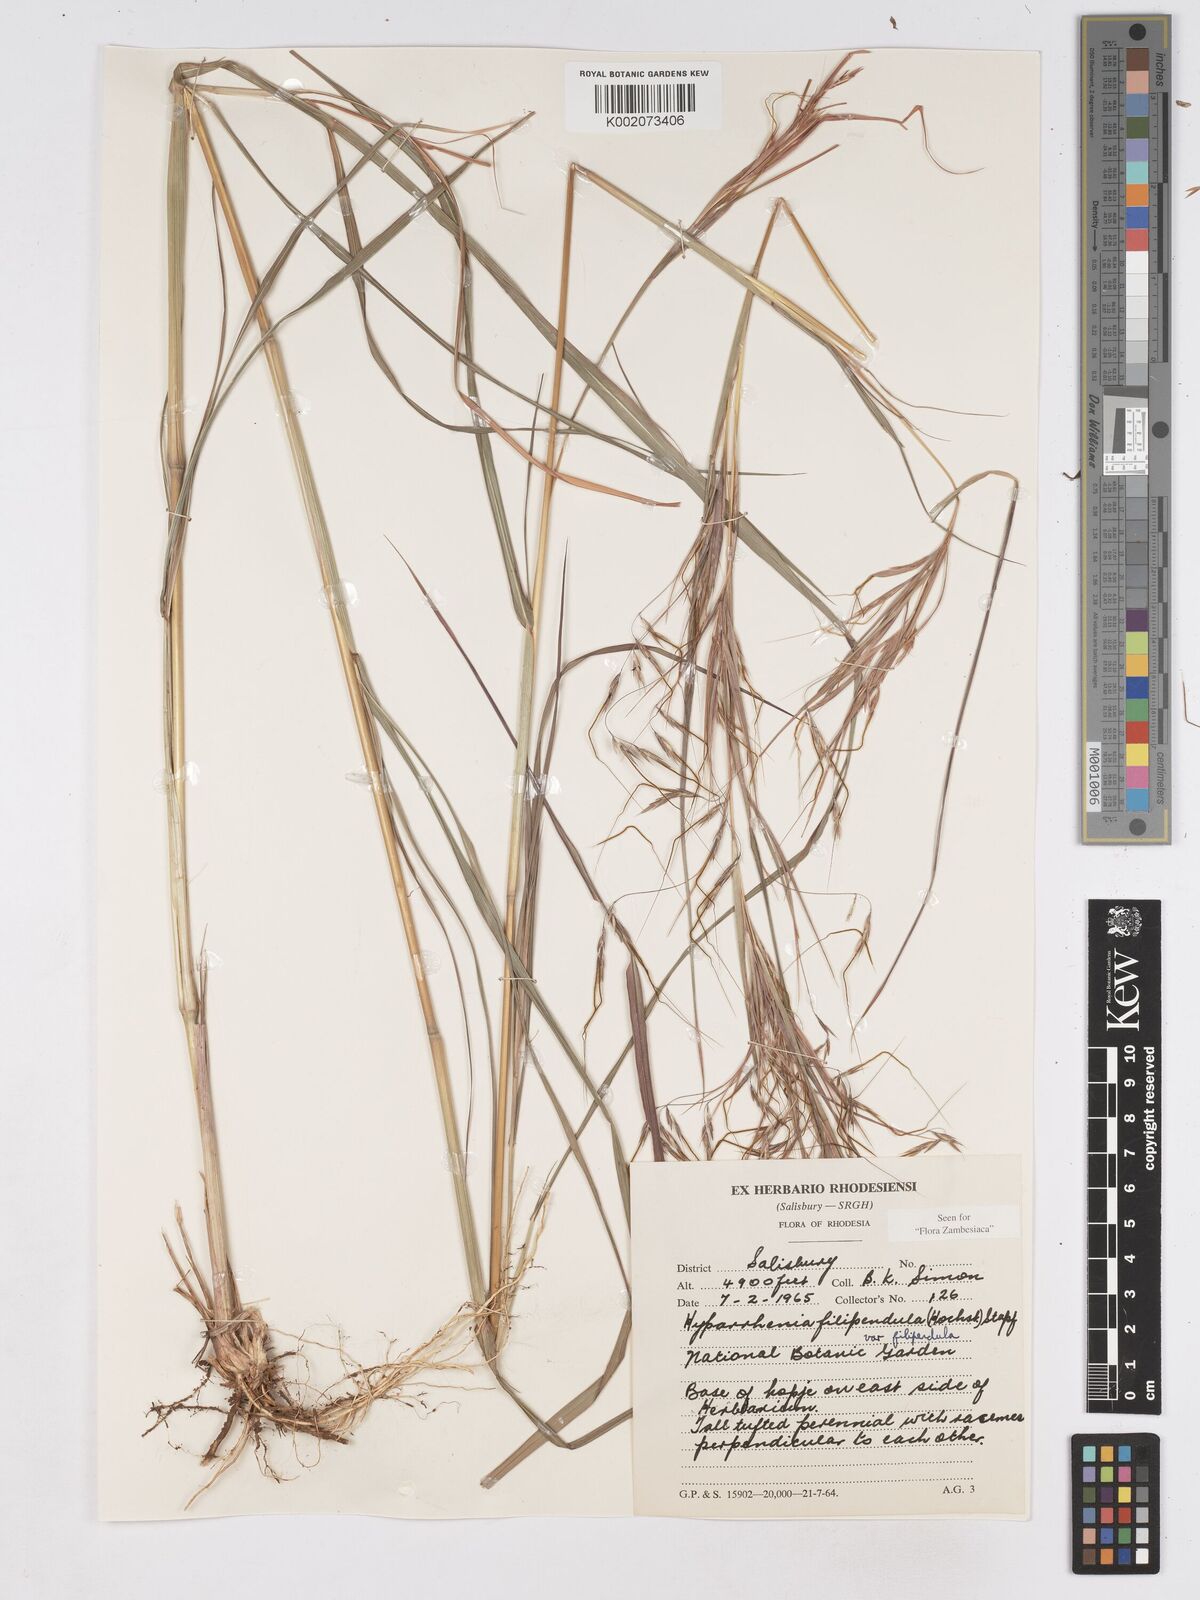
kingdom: Plantae
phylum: Tracheophyta
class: Liliopsida
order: Poales
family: Poaceae
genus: Hyparrhenia
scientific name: Hyparrhenia filipendula
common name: Tambookie grass
